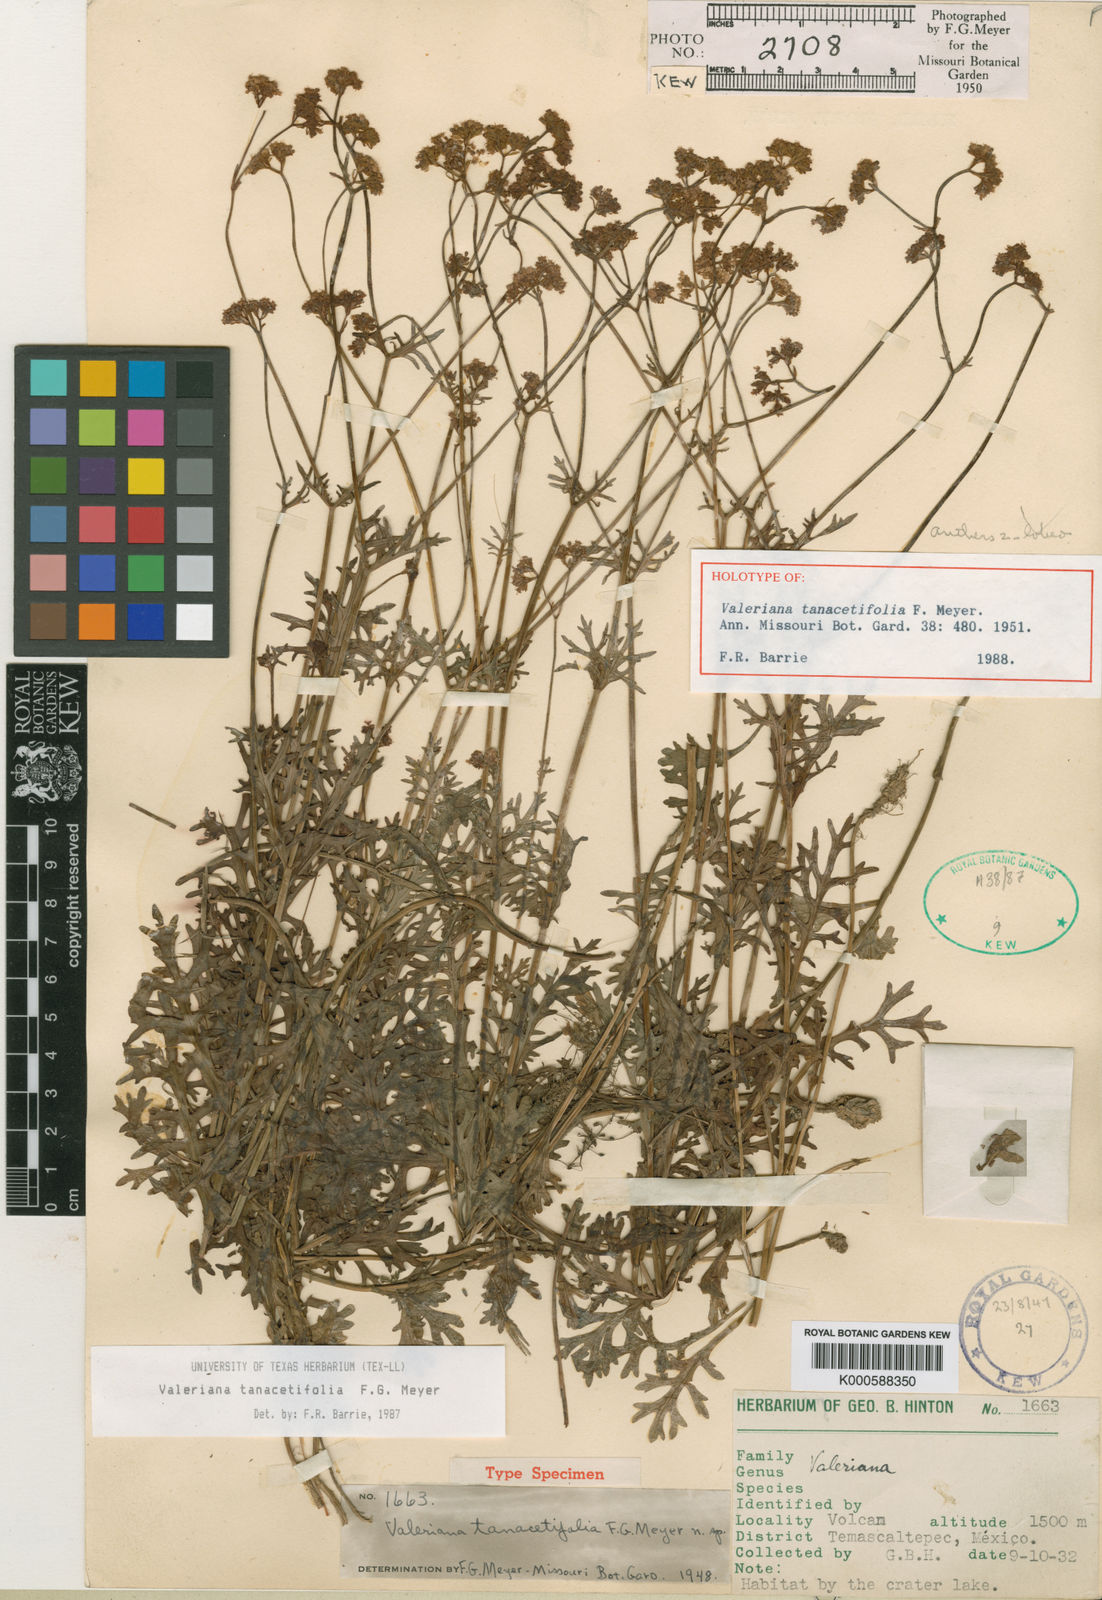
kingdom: Plantae
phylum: Tracheophyta
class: Magnoliopsida
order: Dipsacales
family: Caprifoliaceae
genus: Valeriana
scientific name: Valeriana tanacetifolia
